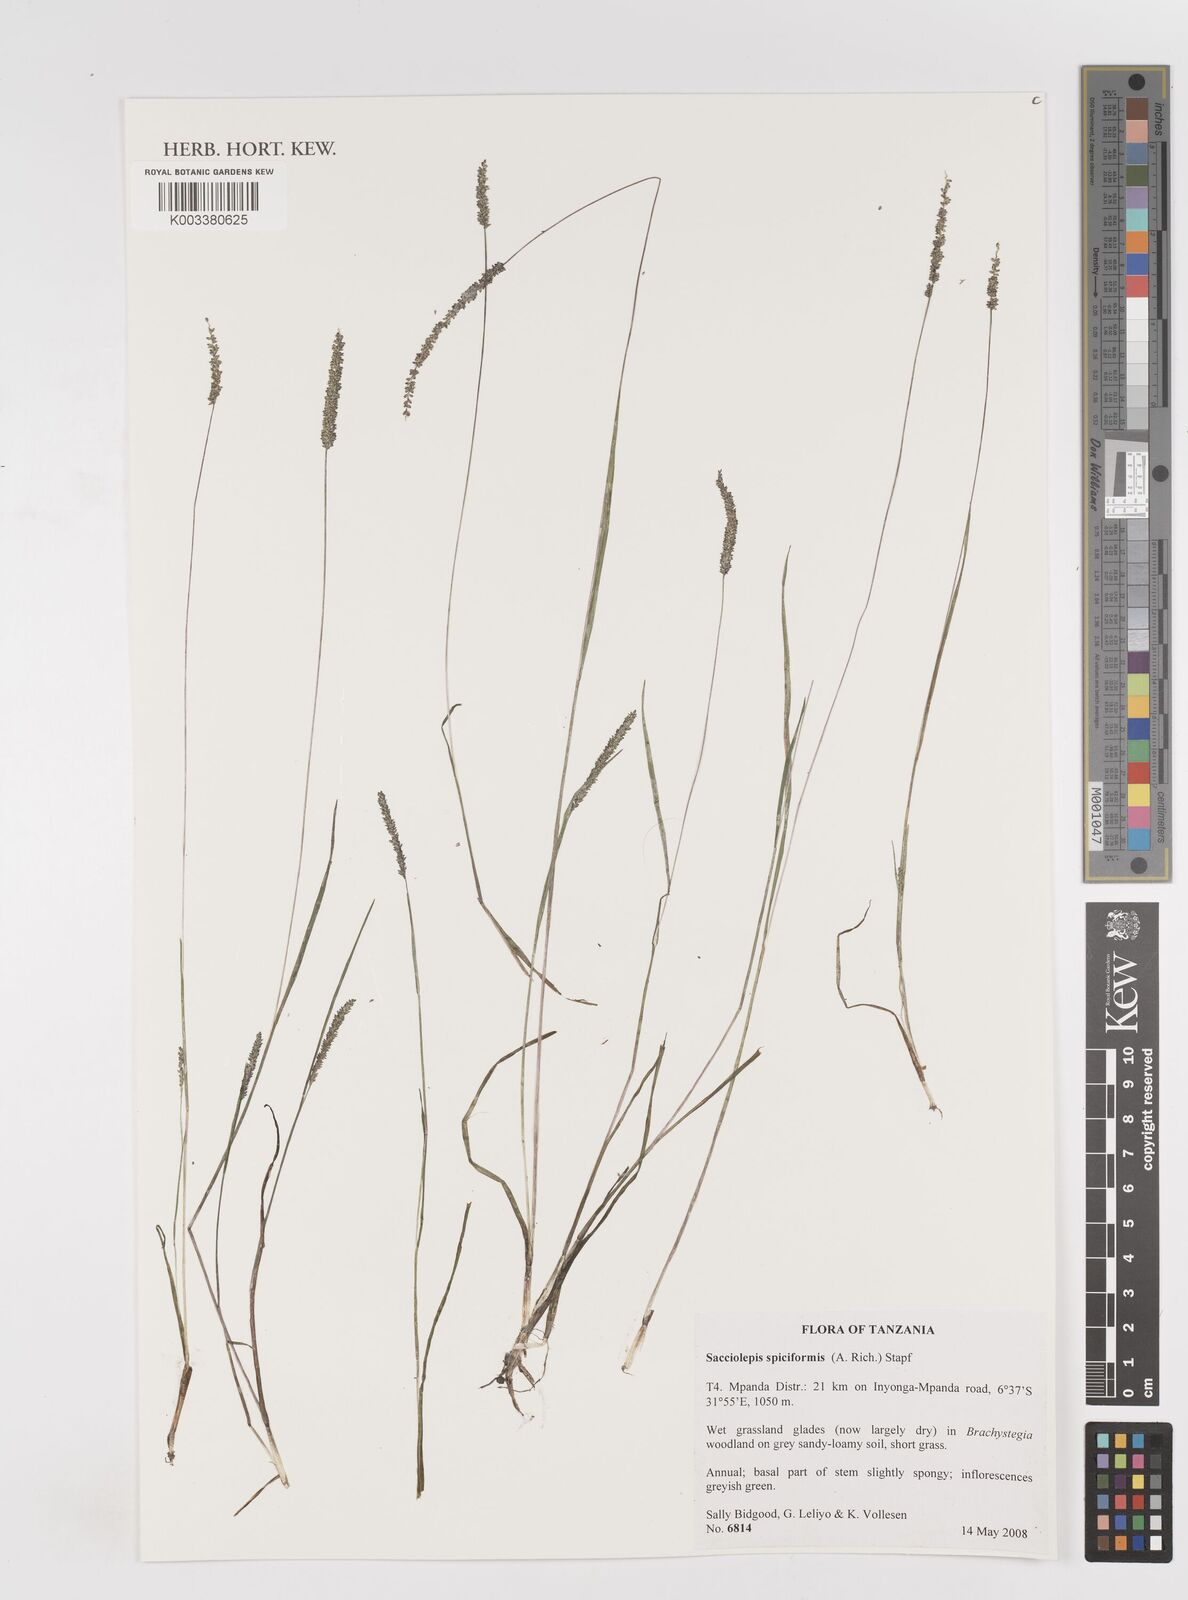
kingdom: Plantae
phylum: Tracheophyta
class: Liliopsida
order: Poales
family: Poaceae
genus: Sacciolepis
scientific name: Sacciolepis myosuroides
